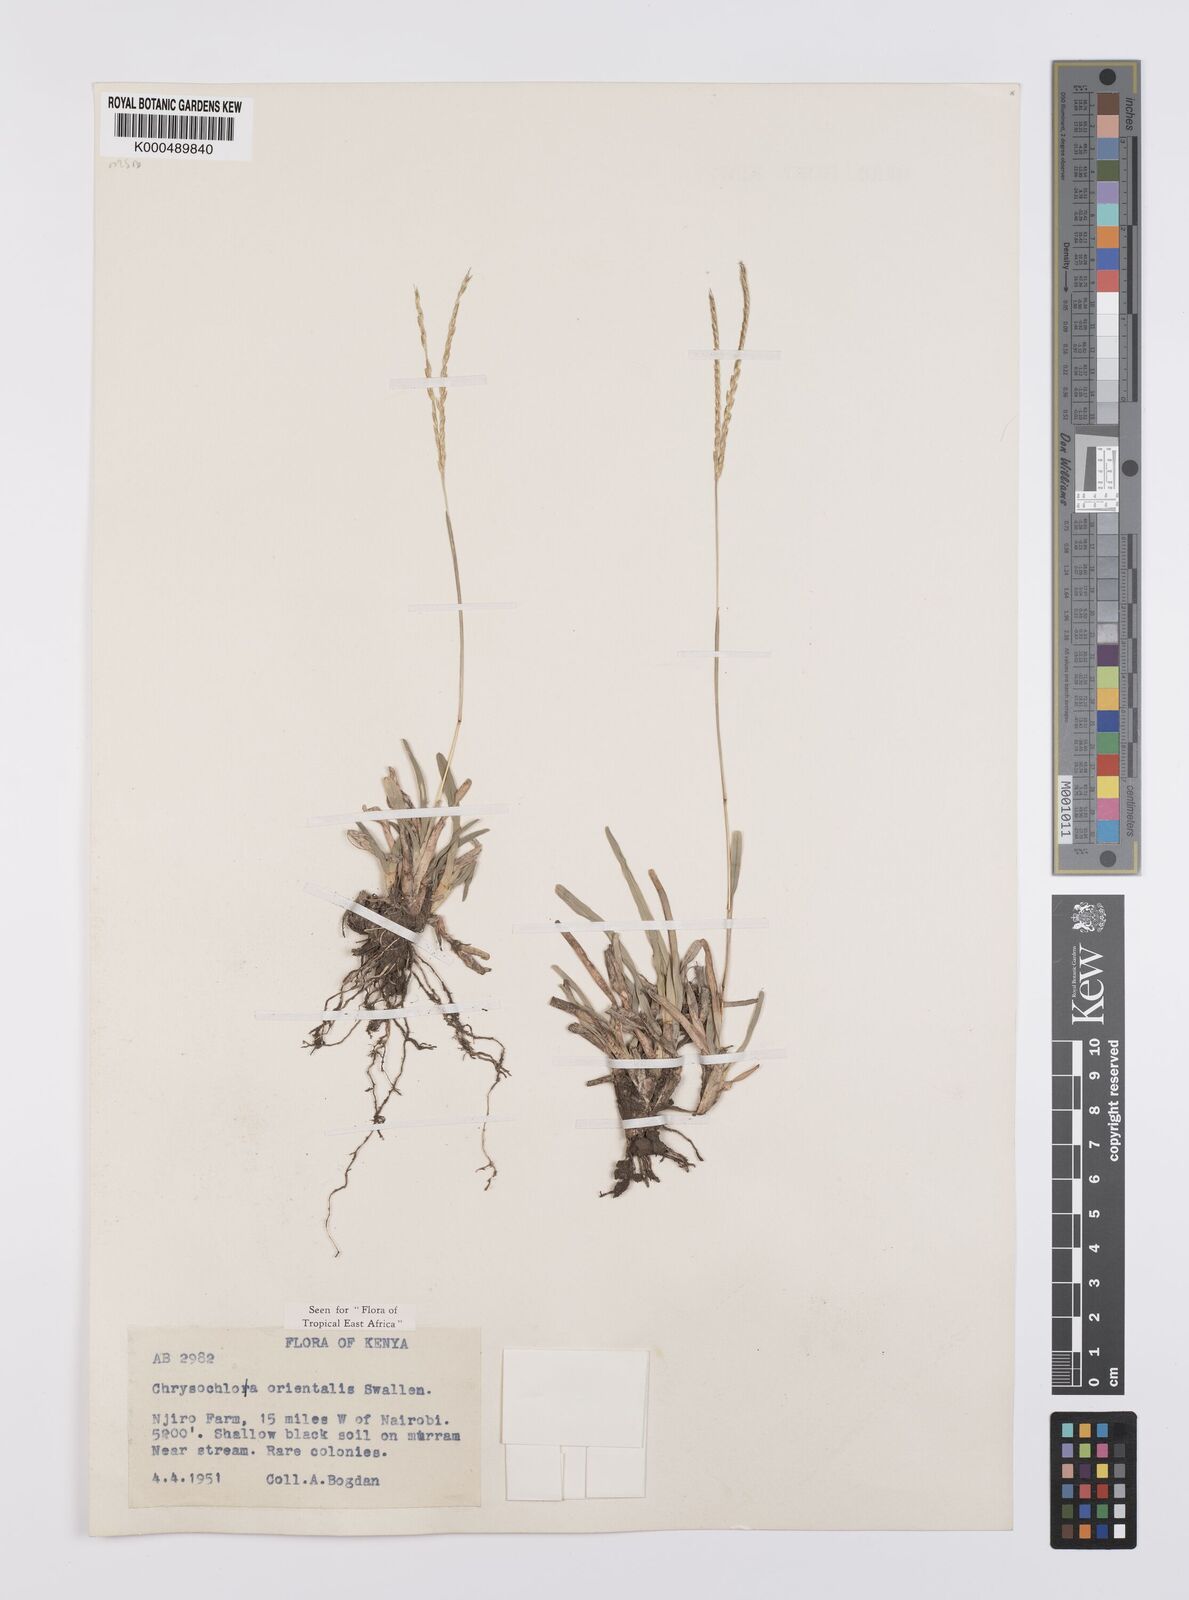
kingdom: Plantae
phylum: Tracheophyta
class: Liliopsida
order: Poales
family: Poaceae
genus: Chrysochloa
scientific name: Chrysochloa
